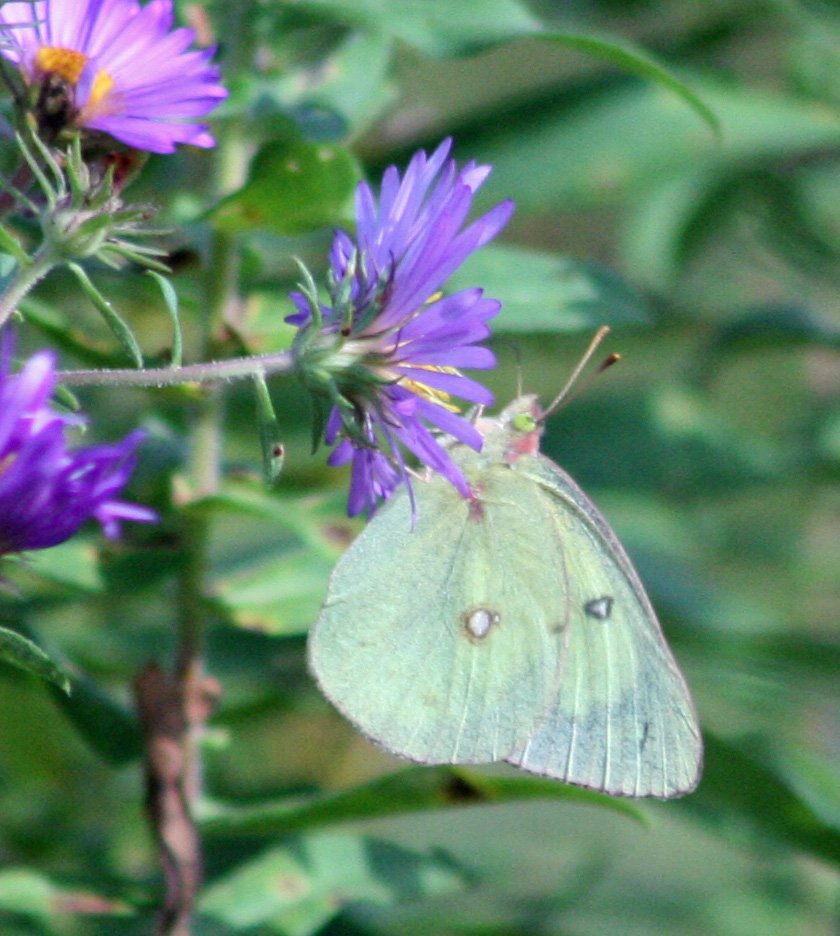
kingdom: Animalia
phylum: Arthropoda
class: Insecta
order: Lepidoptera
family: Pieridae
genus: Colias
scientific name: Colias philodice
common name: Clouded Sulphur
